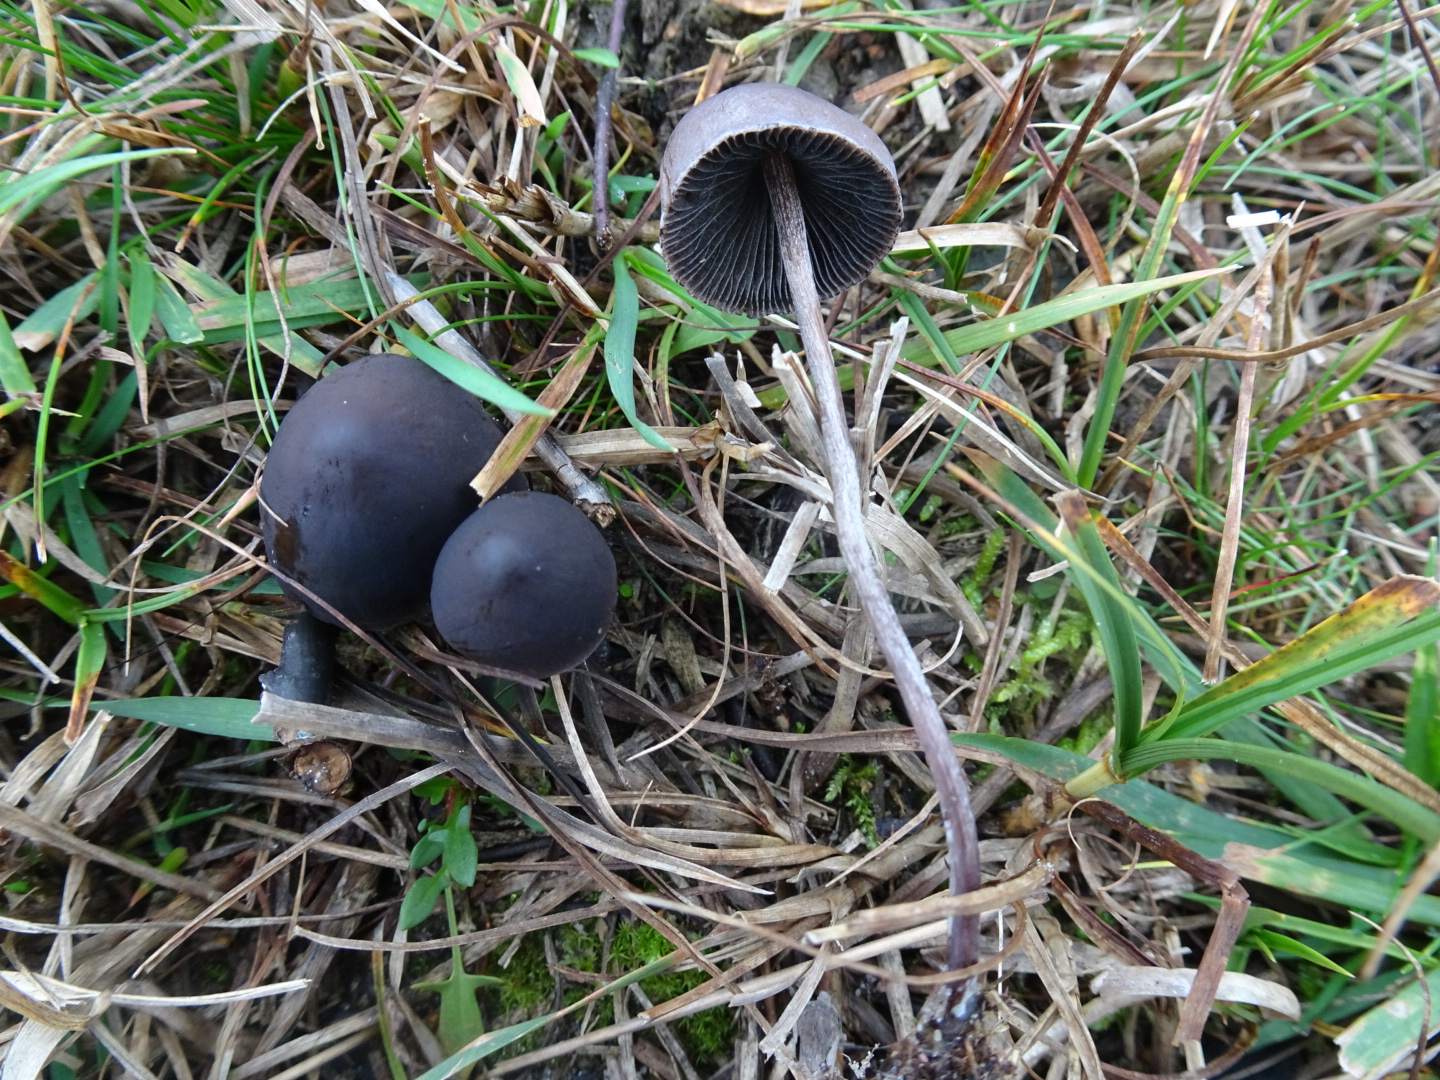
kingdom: Fungi
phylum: Basidiomycota
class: Agaricomycetes
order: Agaricales
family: Bolbitiaceae
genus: Panaeolus
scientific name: Panaeolus acuminatus
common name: høj glanshat
